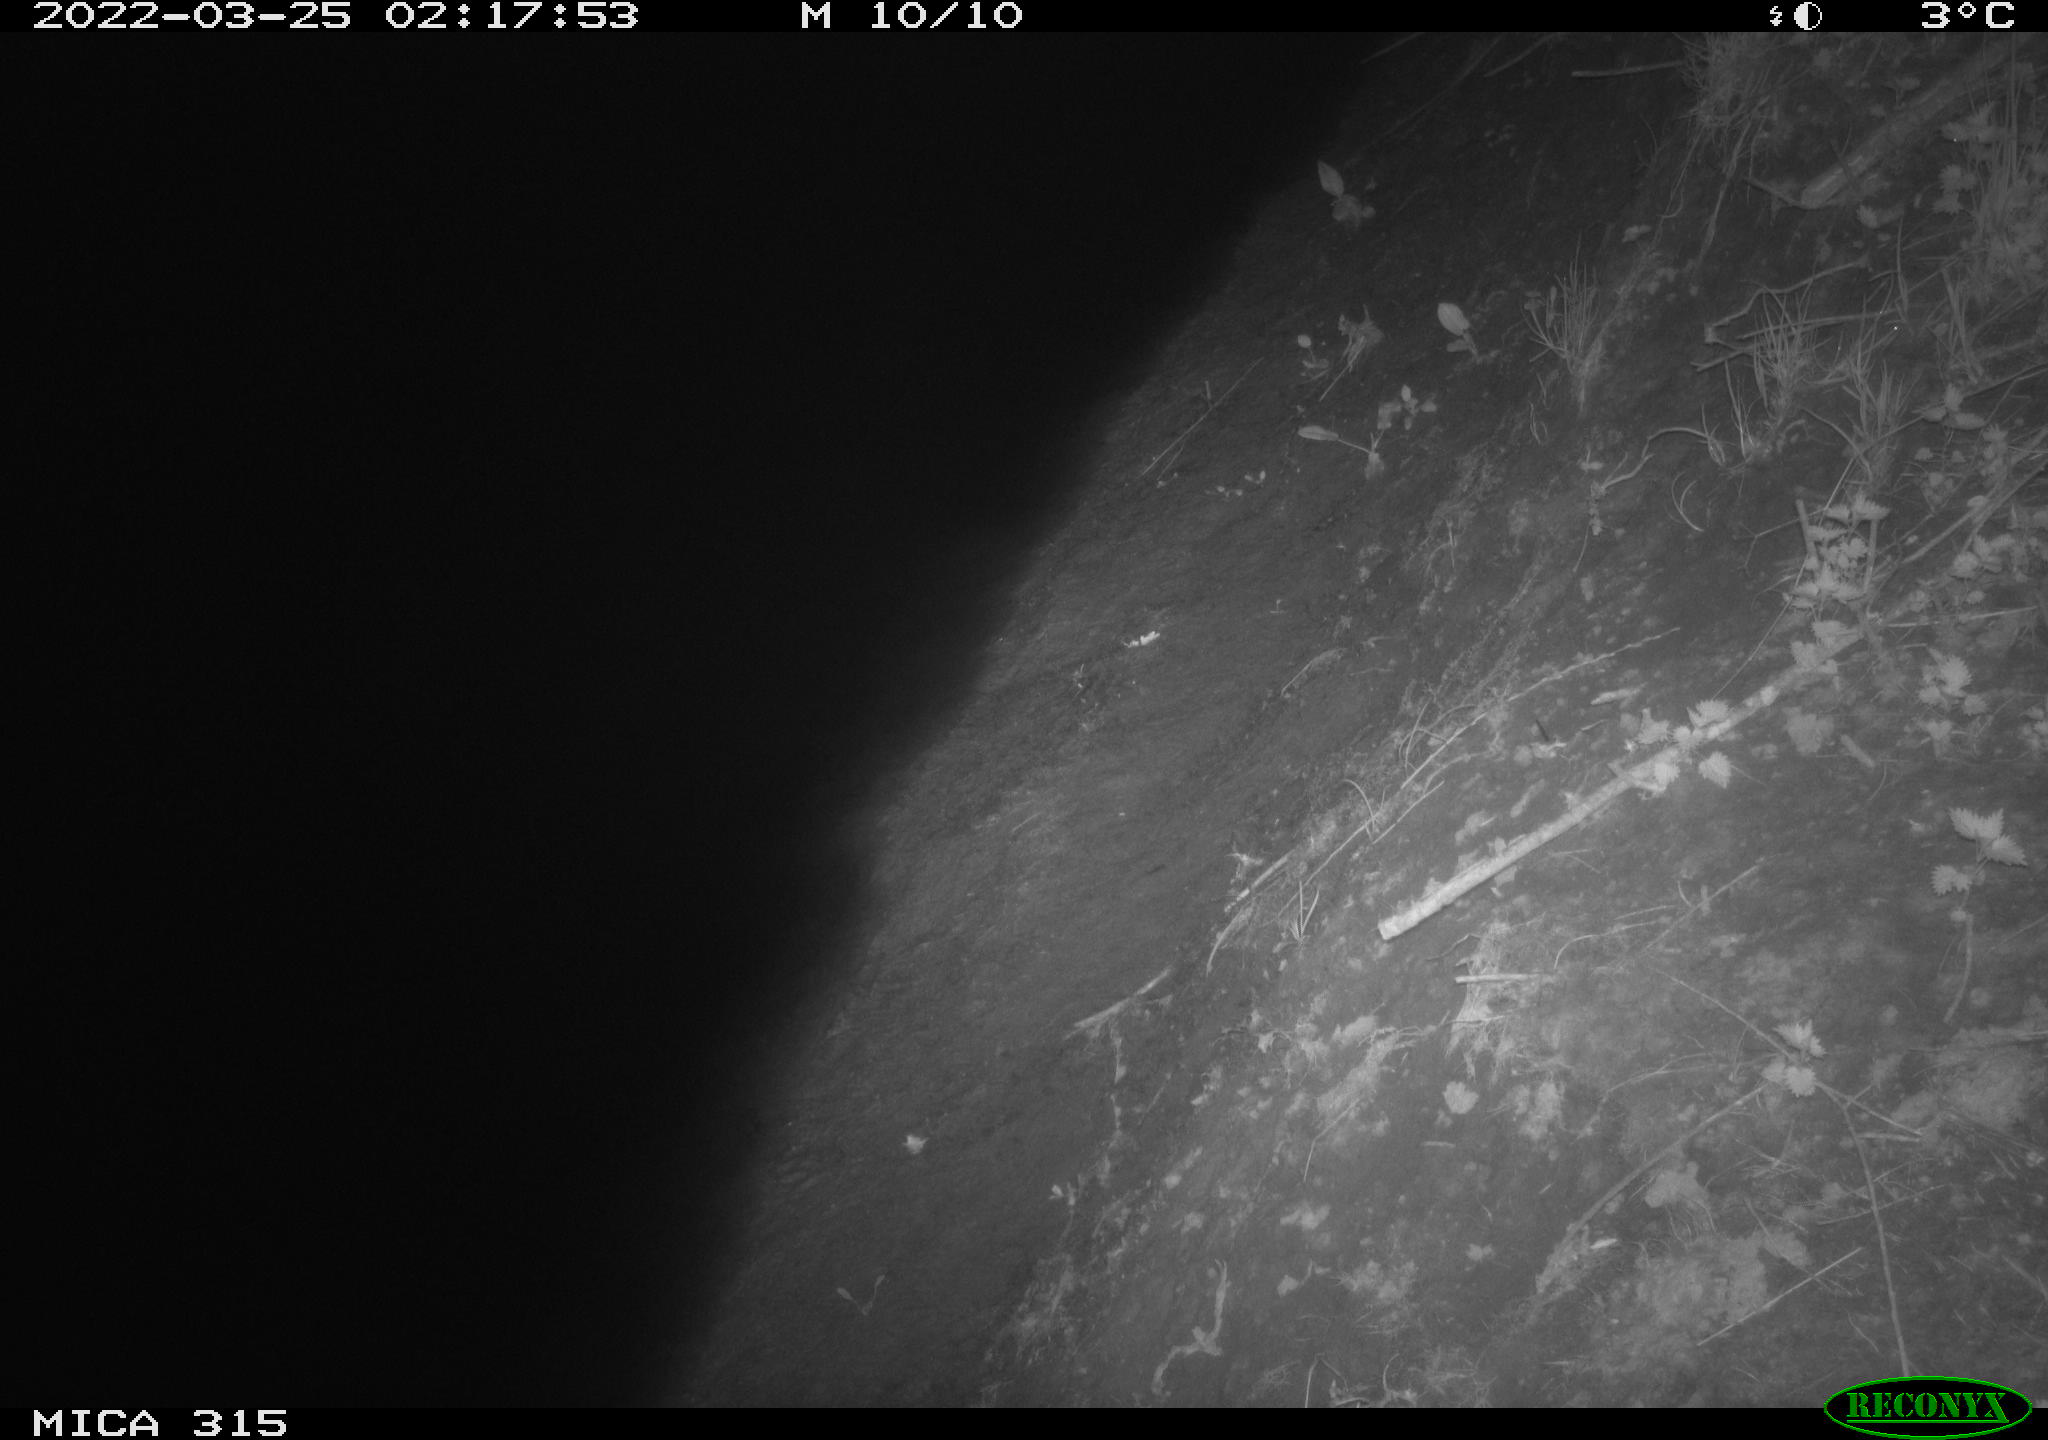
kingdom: Animalia
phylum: Chordata
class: Aves
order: Anseriformes
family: Anatidae
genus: Anas
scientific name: Anas platyrhynchos
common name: Mallard
